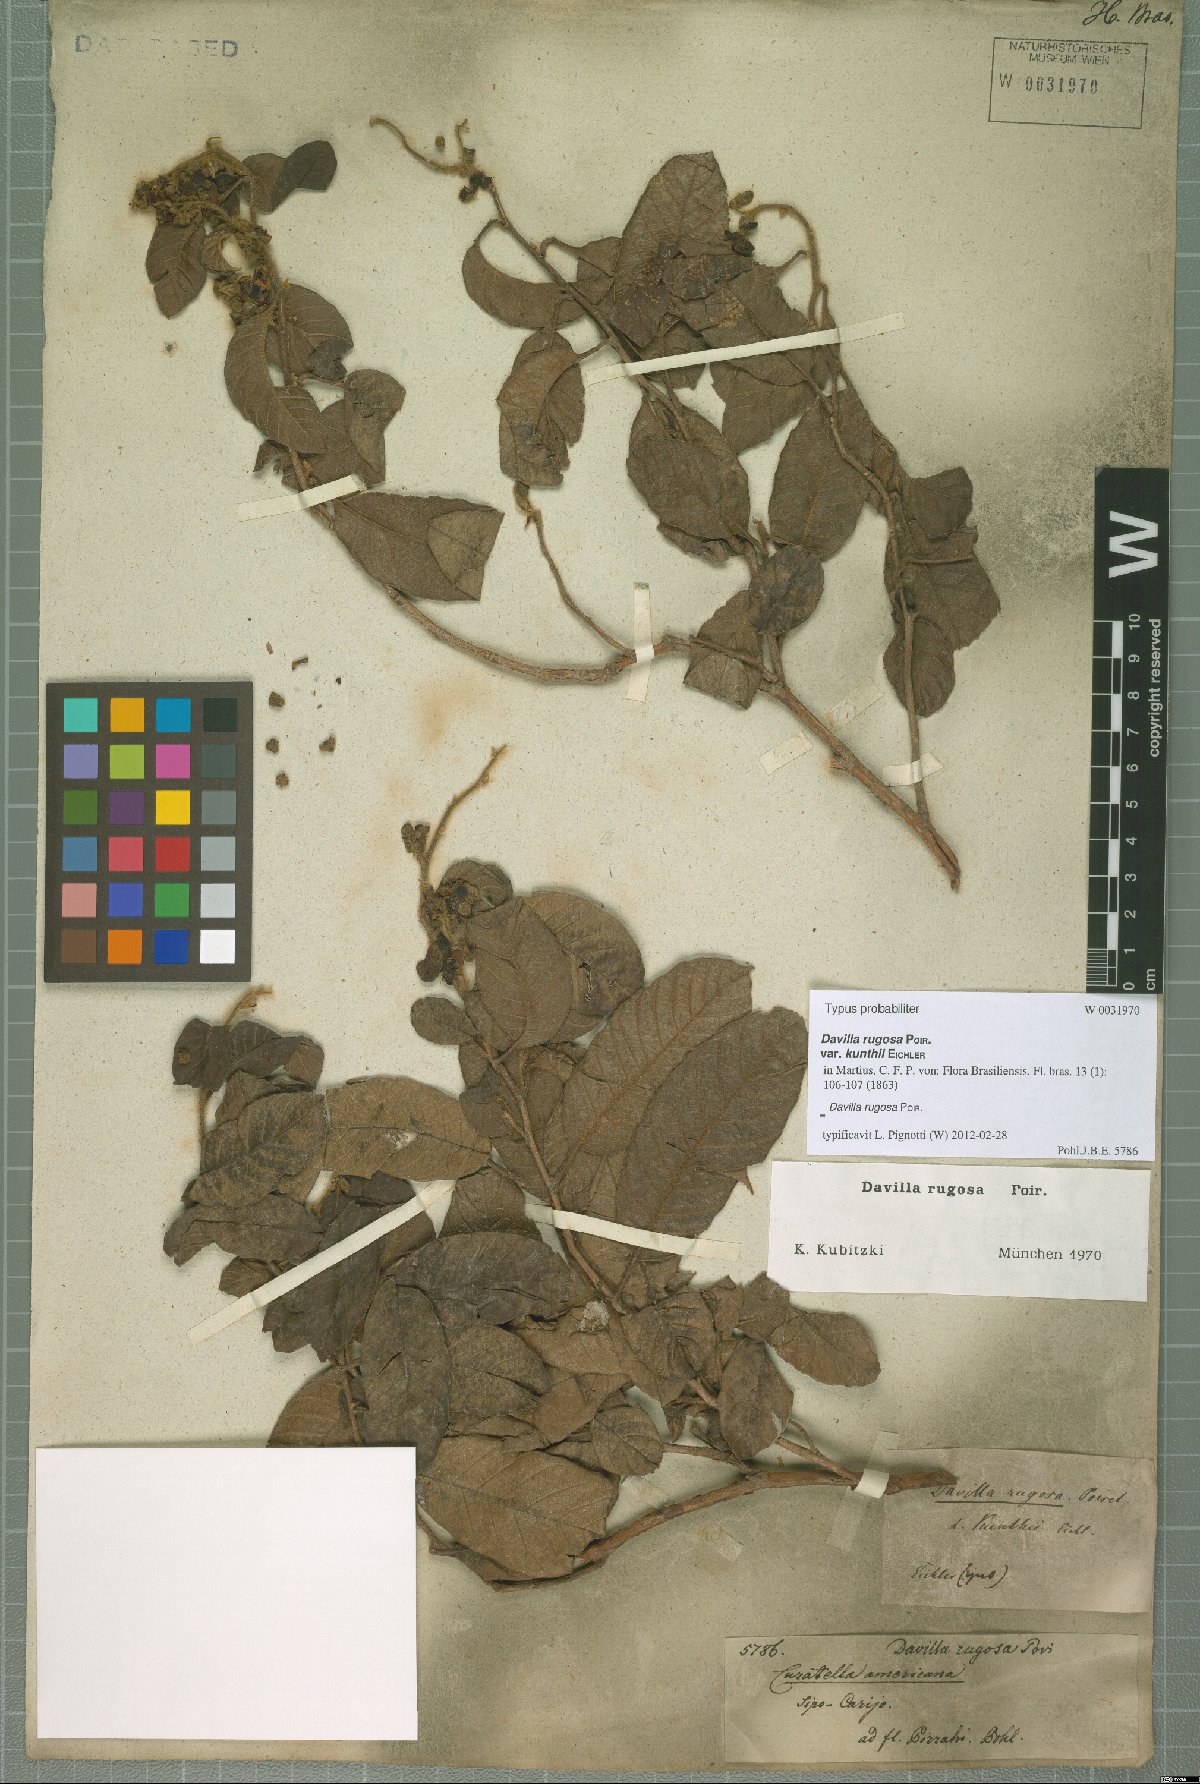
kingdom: Plantae
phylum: Tracheophyta
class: Magnoliopsida
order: Dilleniales
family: Dilleniaceae
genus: Davilla
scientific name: Davilla rugosa
